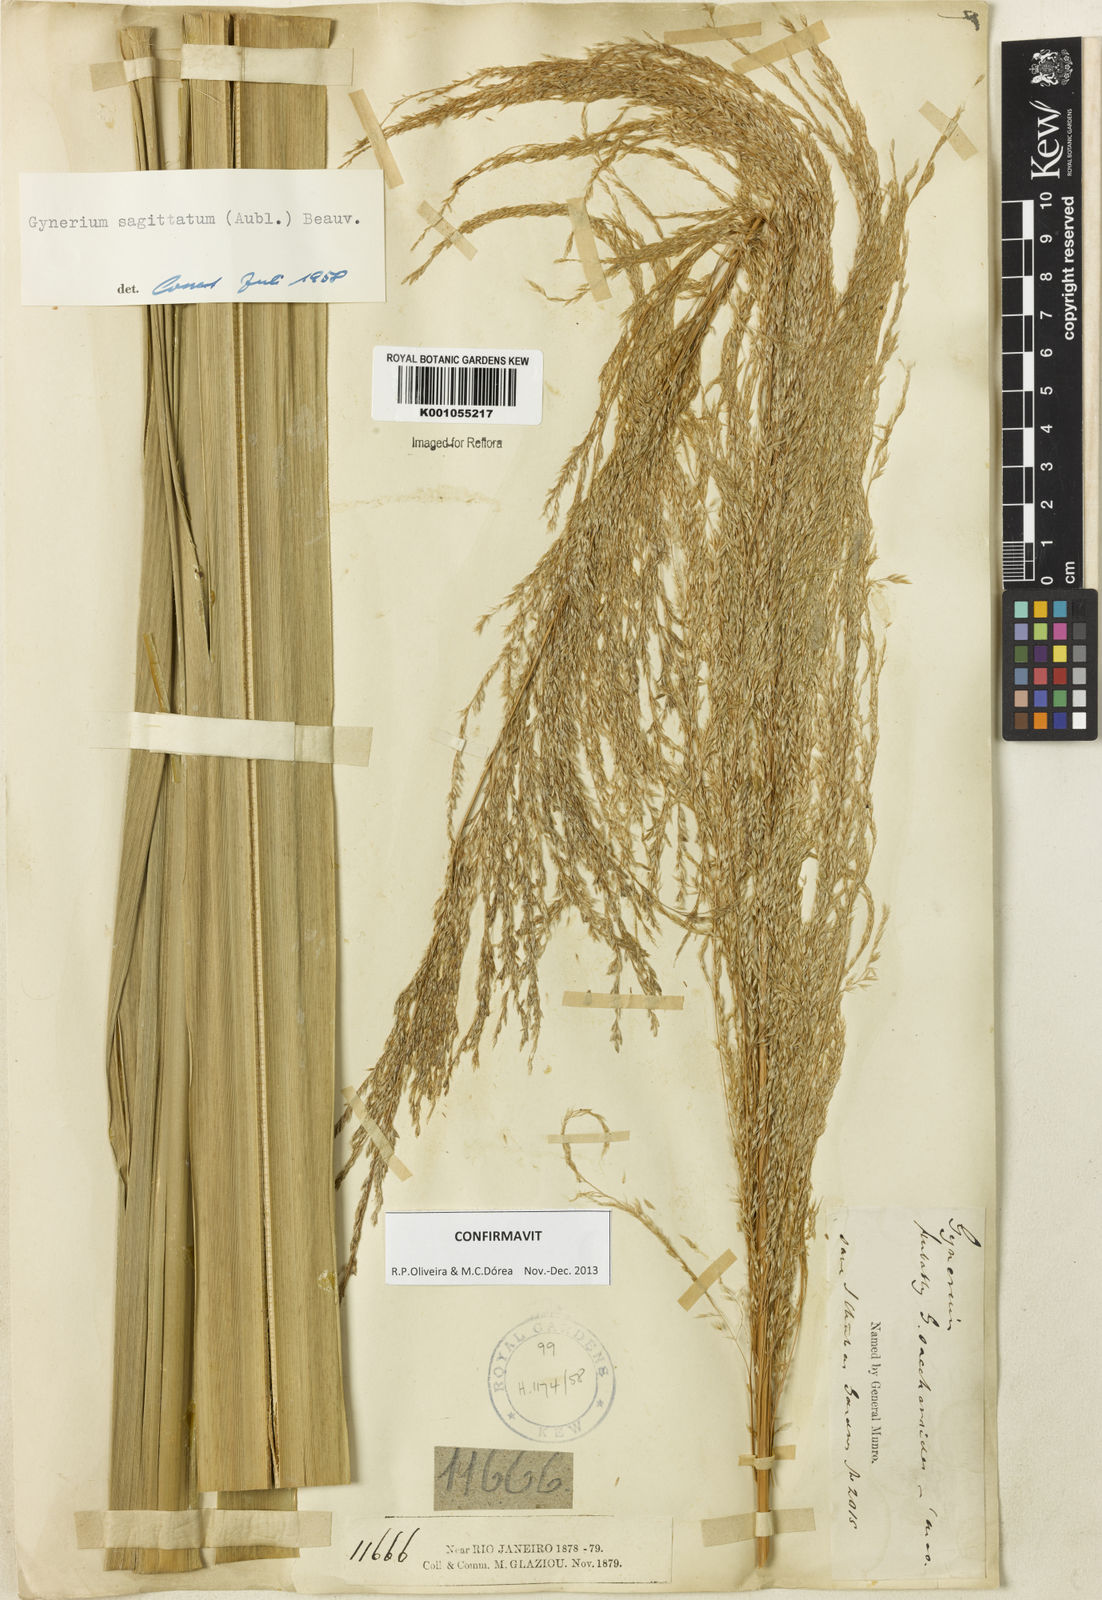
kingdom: Plantae
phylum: Tracheophyta
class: Liliopsida
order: Poales
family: Poaceae
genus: Gynerium
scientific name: Gynerium sagittatum
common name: Wild cane
